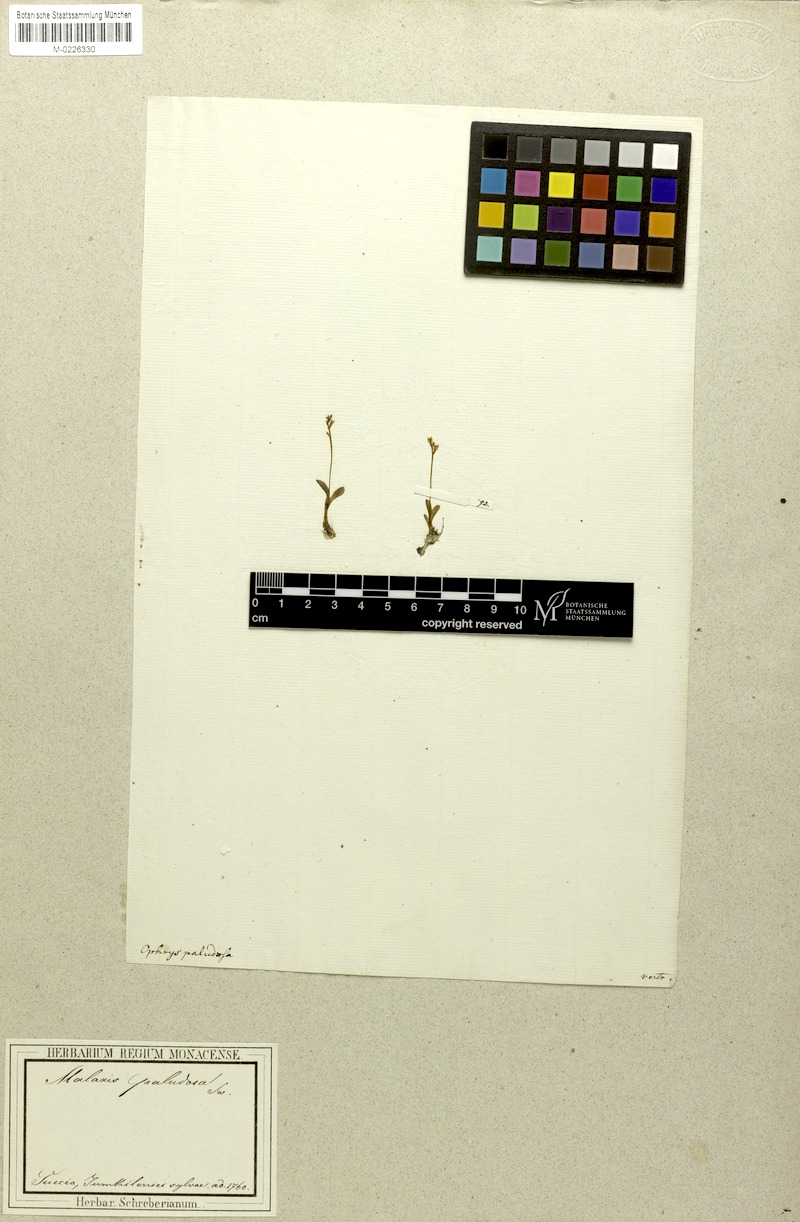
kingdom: Plantae
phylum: Tracheophyta
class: Liliopsida
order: Asparagales
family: Orchidaceae
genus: Hammarbya
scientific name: Hammarbya paludosa
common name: Bog orchid
